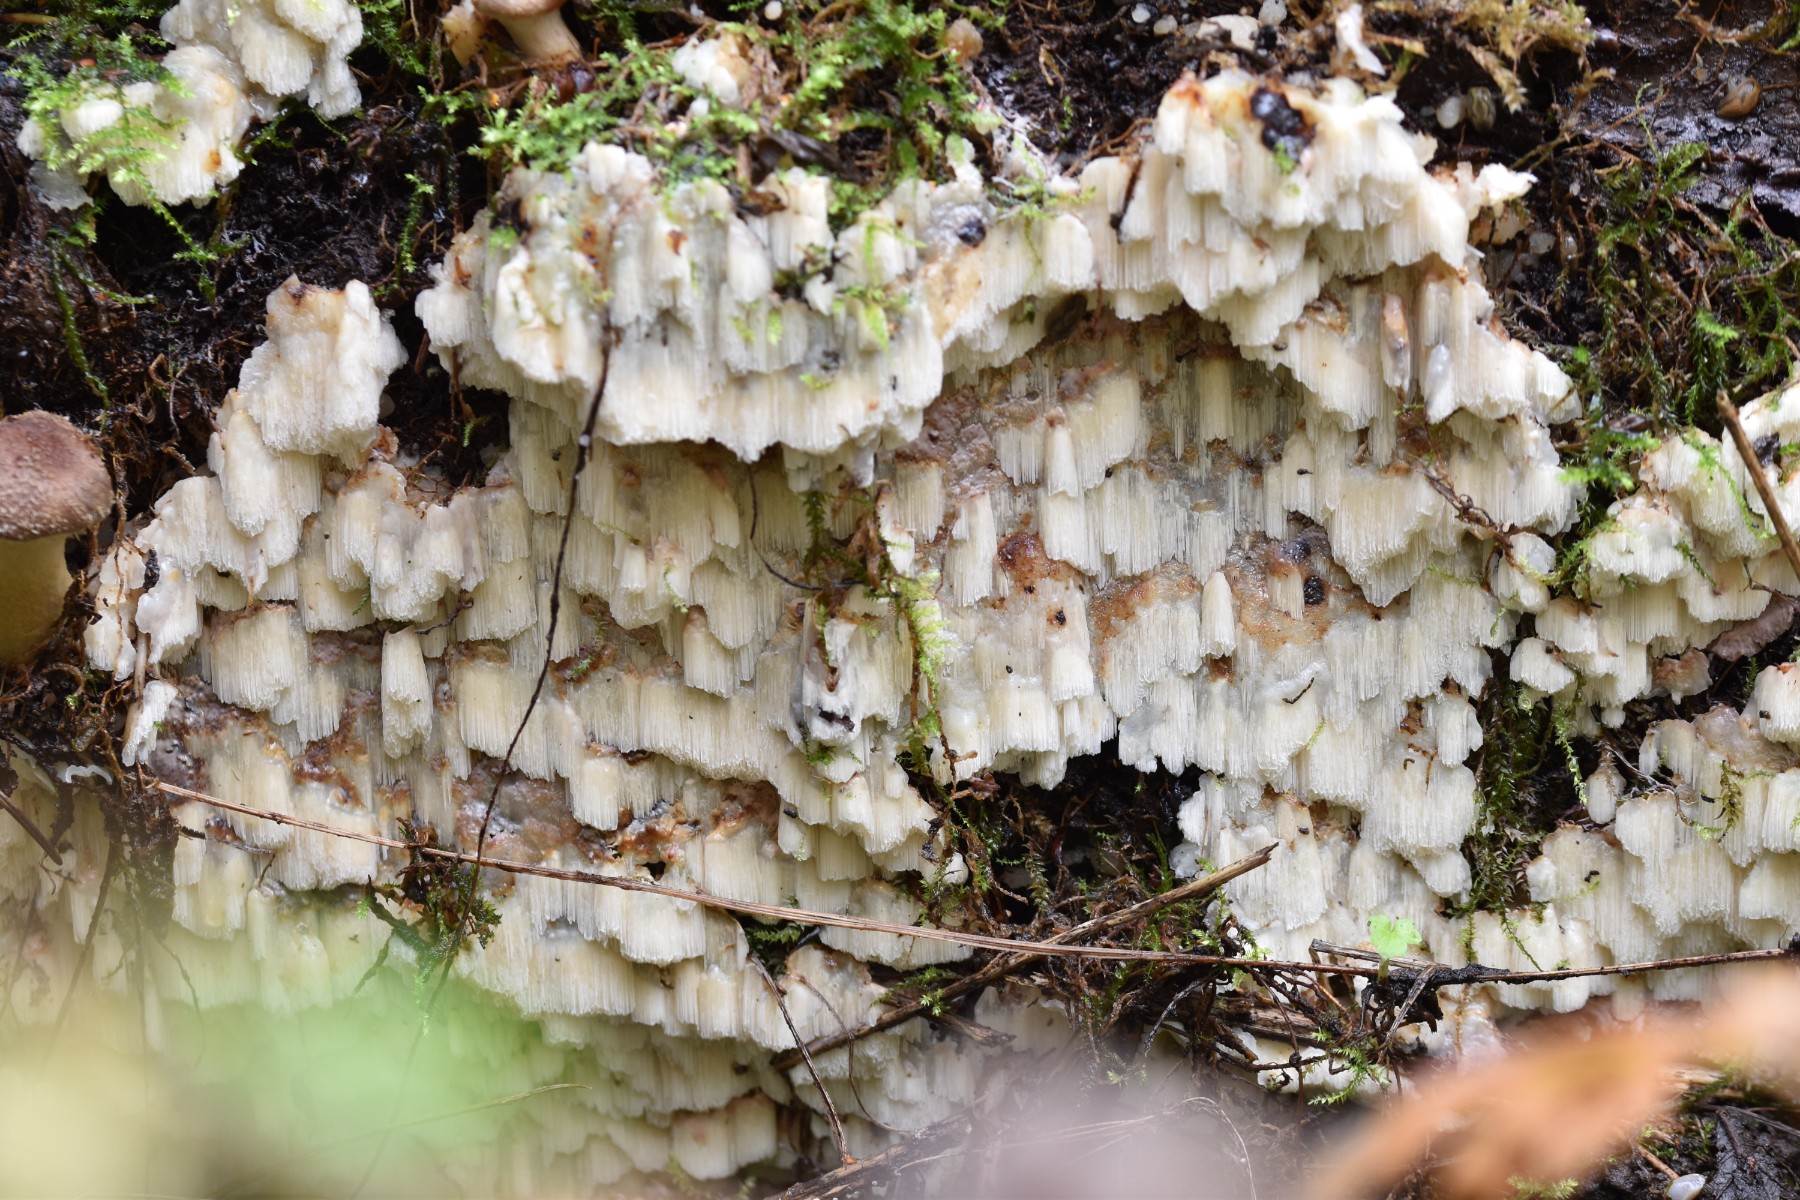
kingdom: Fungi
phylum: Basidiomycota
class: Agaricomycetes
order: Polyporales
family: Meruliaceae
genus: Physisporinus
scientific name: Physisporinus vitreus
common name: mastesvamp
